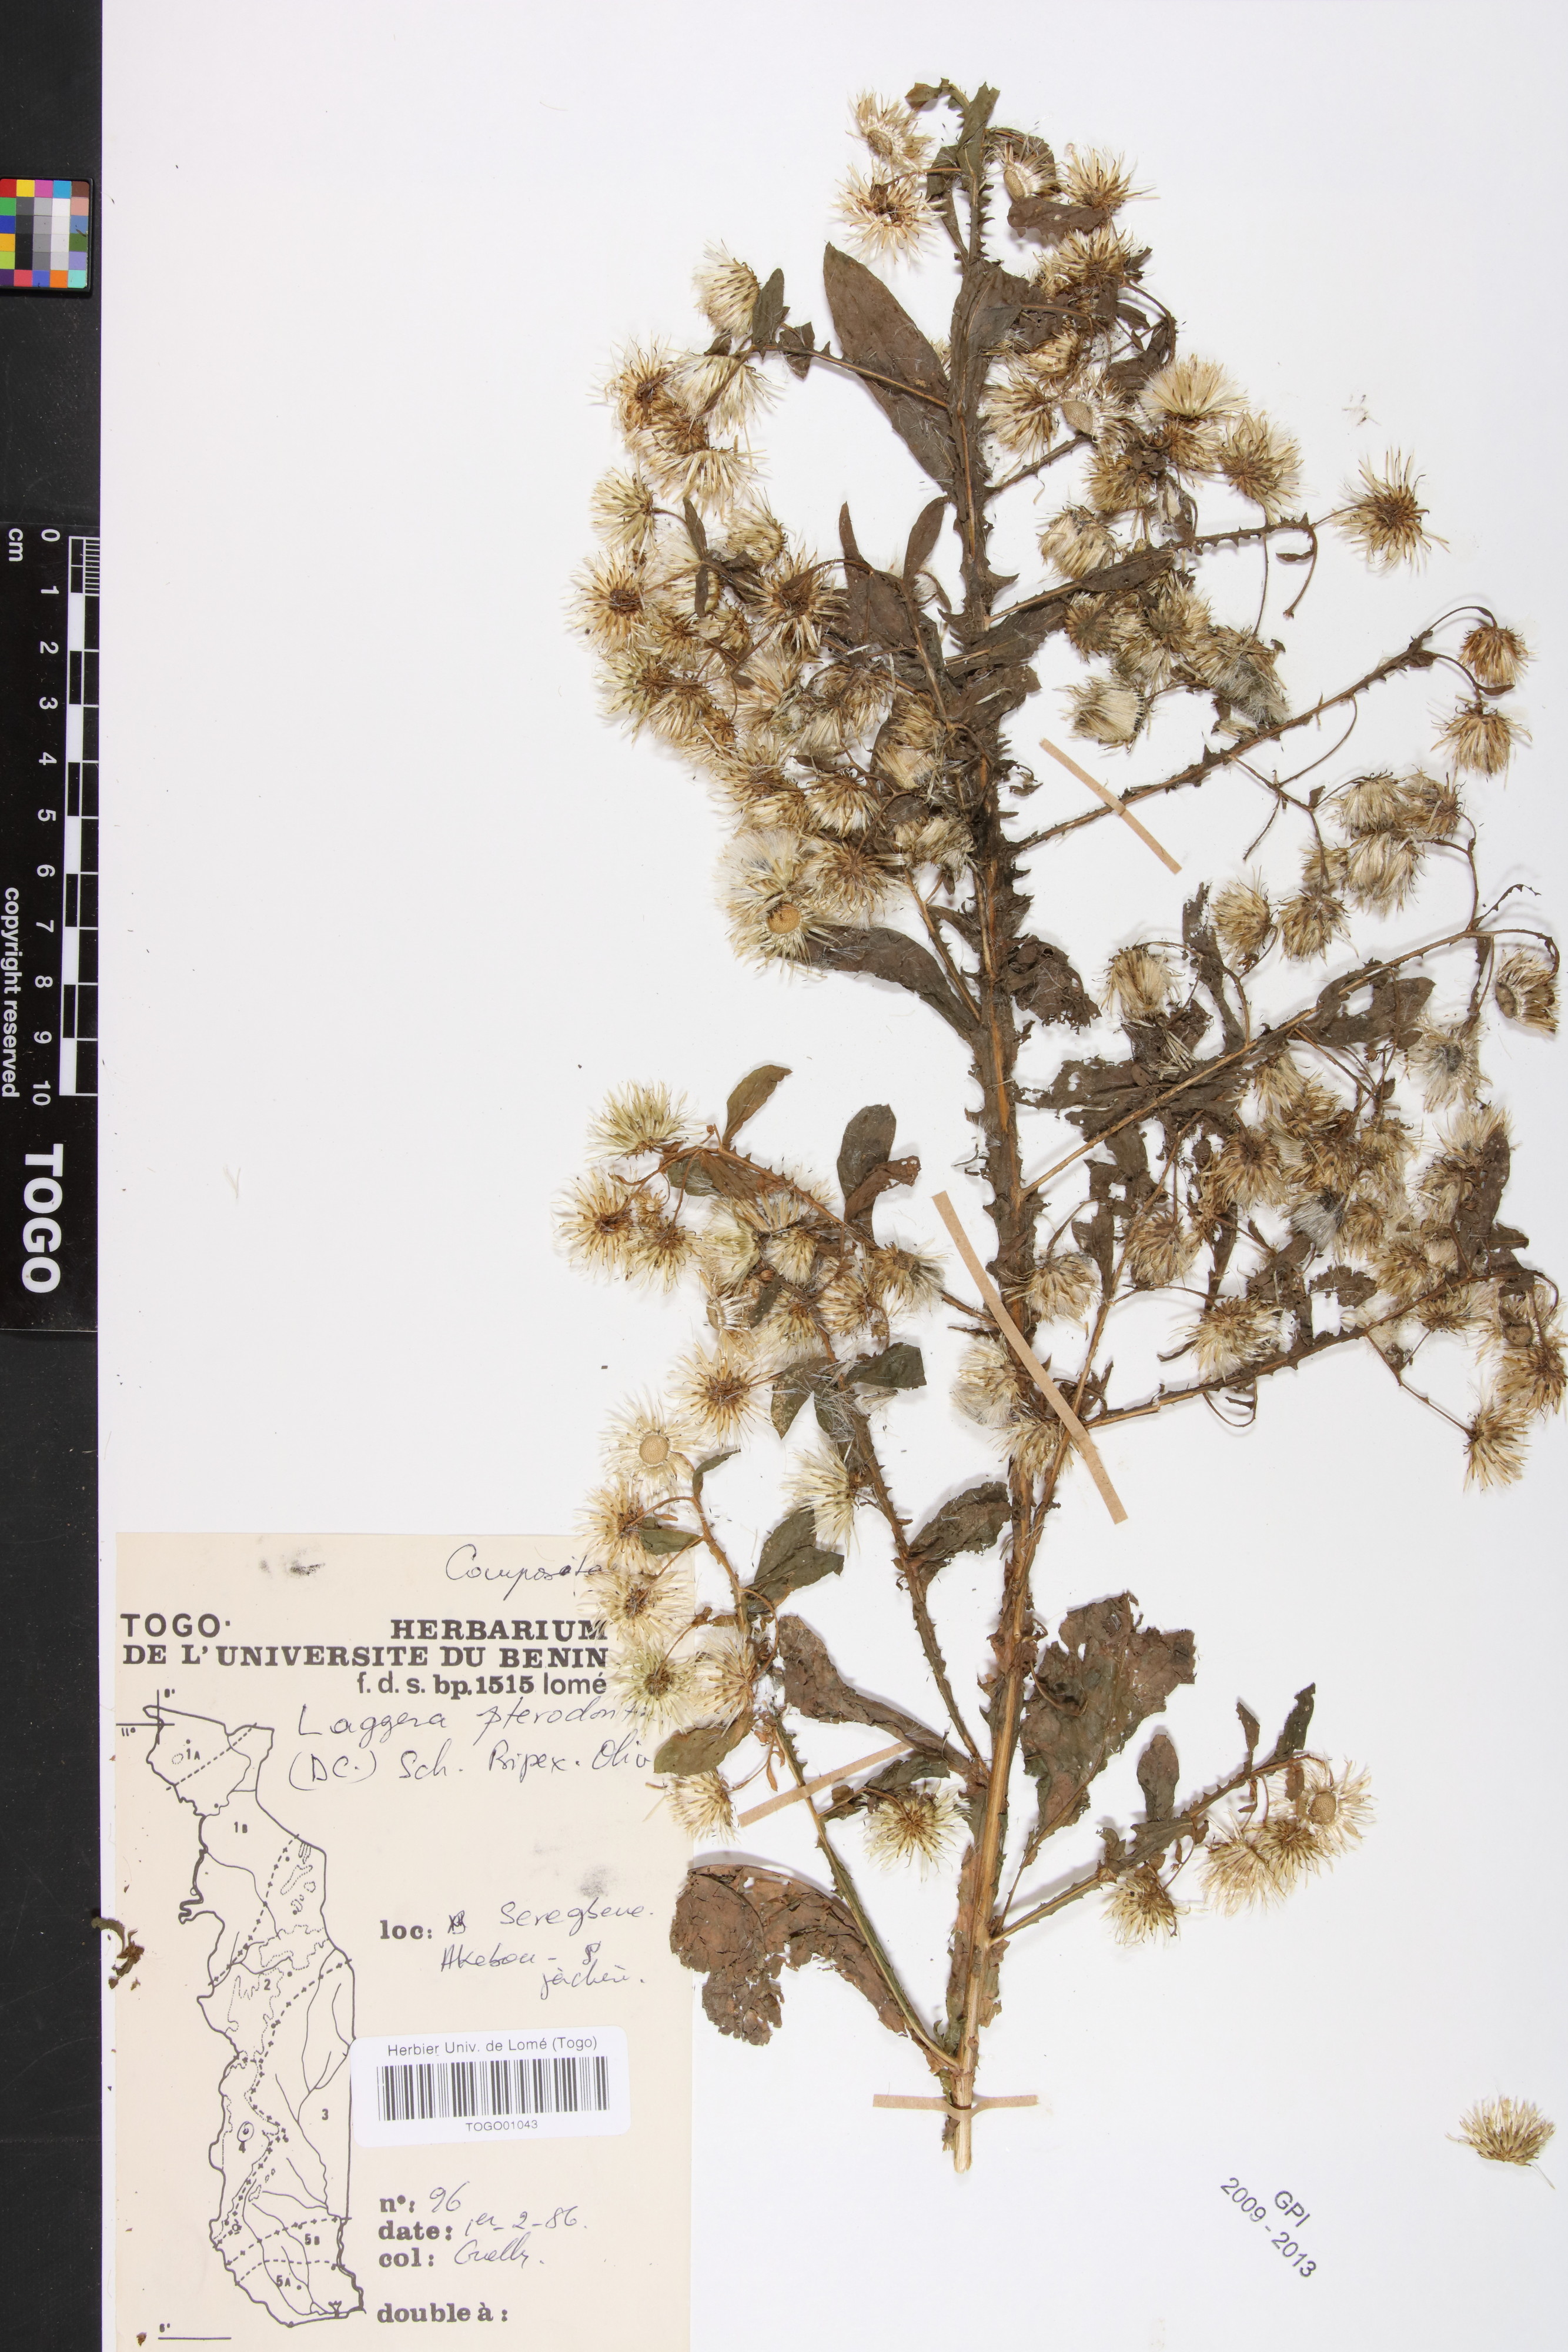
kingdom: Plantae
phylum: Tracheophyta
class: Magnoliopsida
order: Asterales
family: Asteraceae
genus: Laggera
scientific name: Laggera crispata
